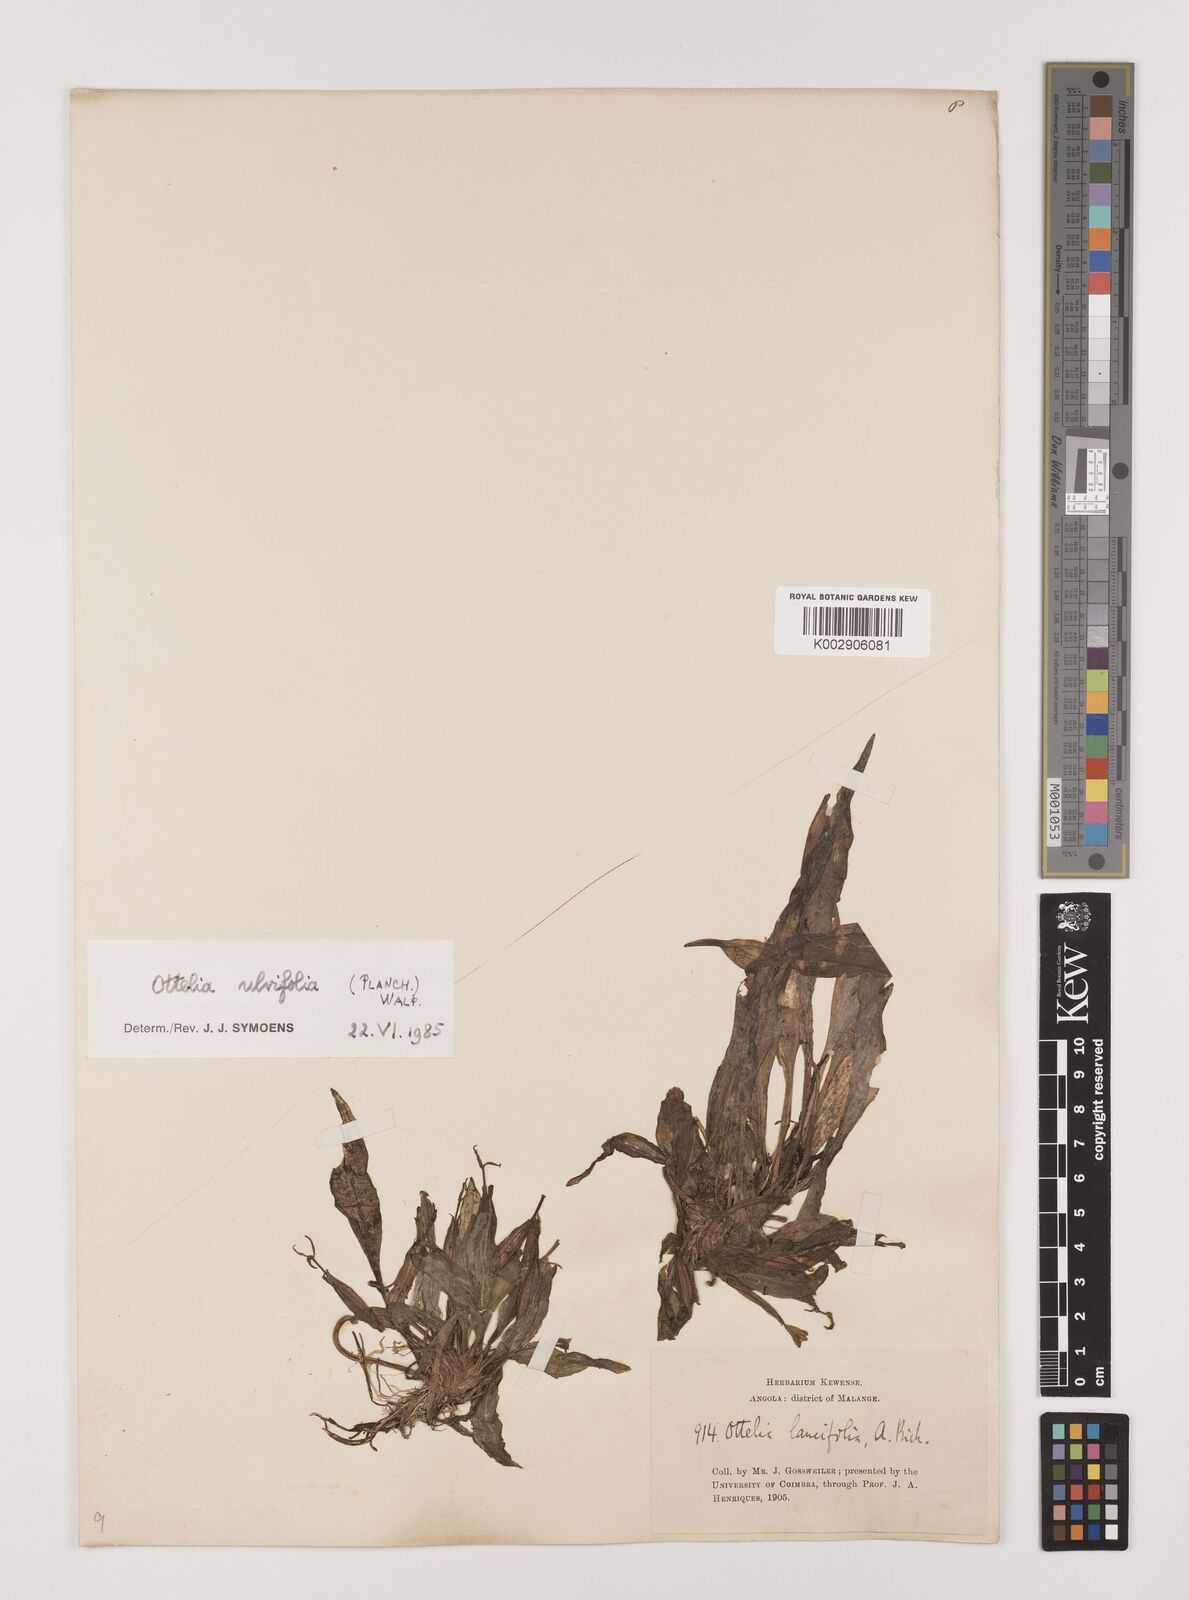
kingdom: Plantae
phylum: Tracheophyta
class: Liliopsida
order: Alismatales
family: Hydrocharitaceae
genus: Ottelia
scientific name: Ottelia ulvifolia
